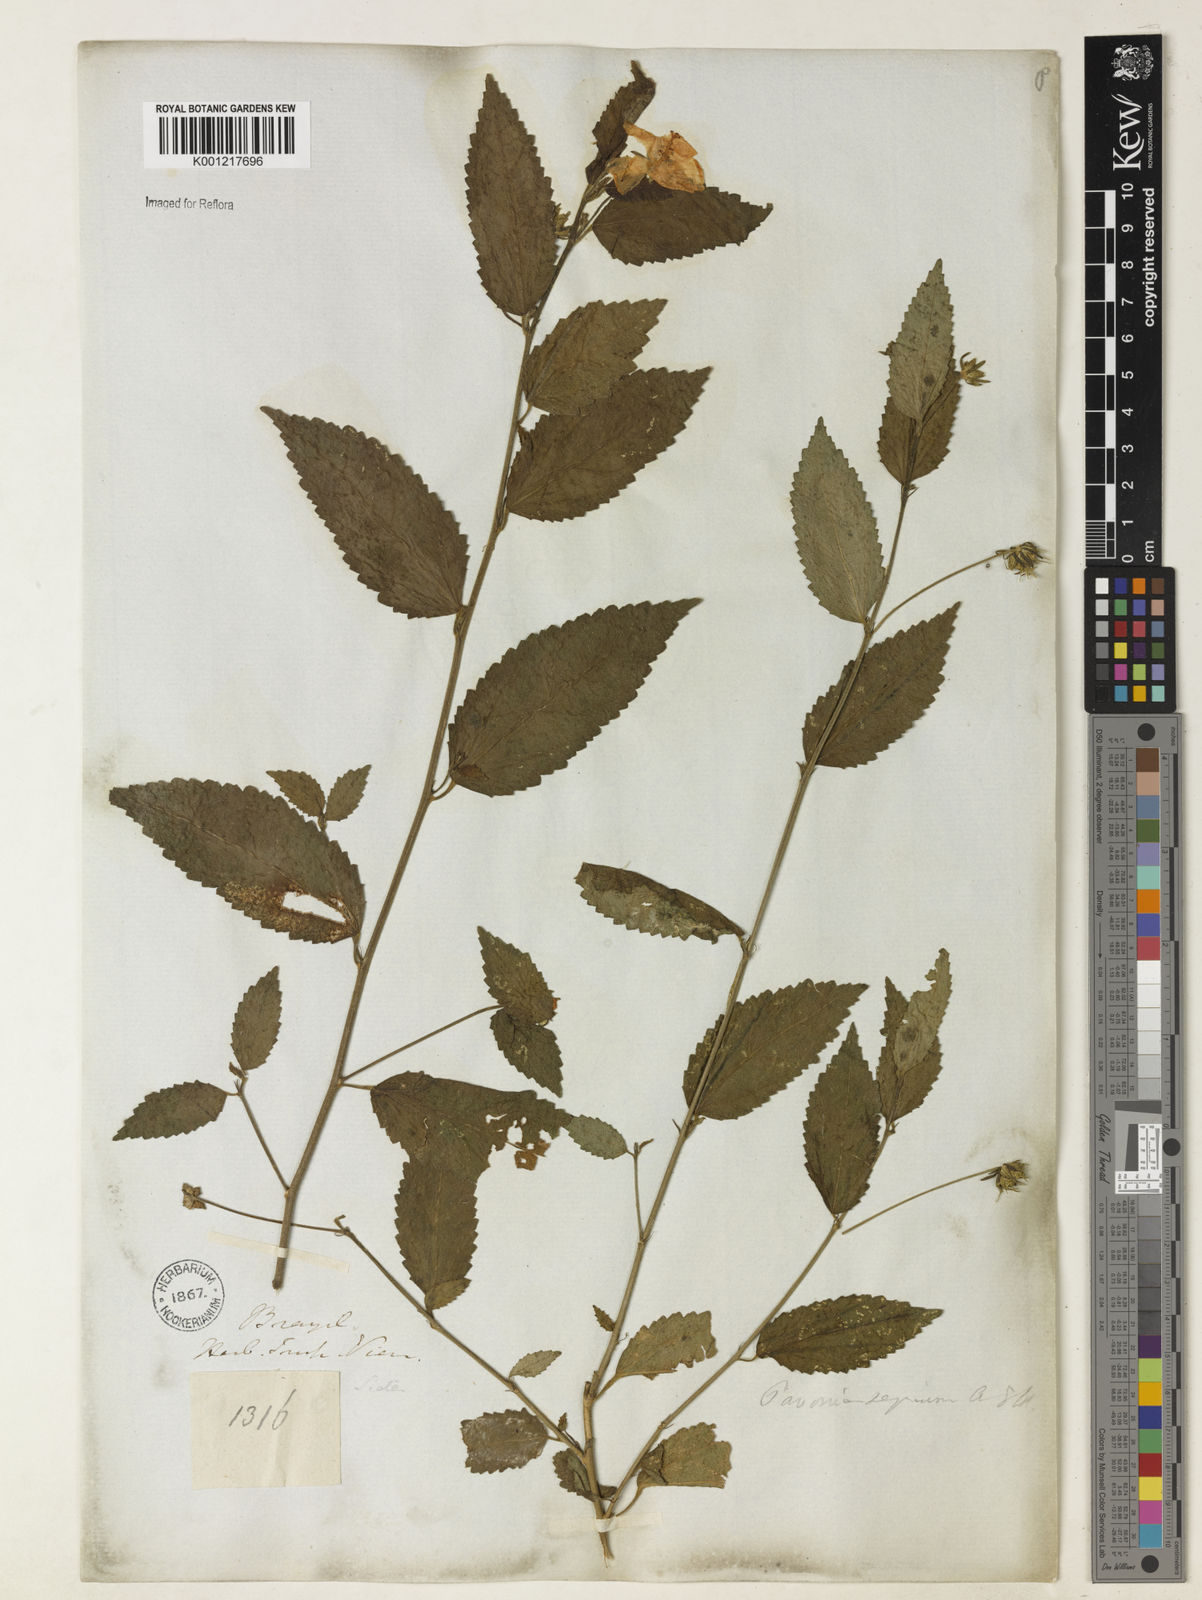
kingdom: Plantae
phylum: Tracheophyta
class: Magnoliopsida
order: Malvales
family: Malvaceae
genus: Pavonia
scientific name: Pavonia sepium
